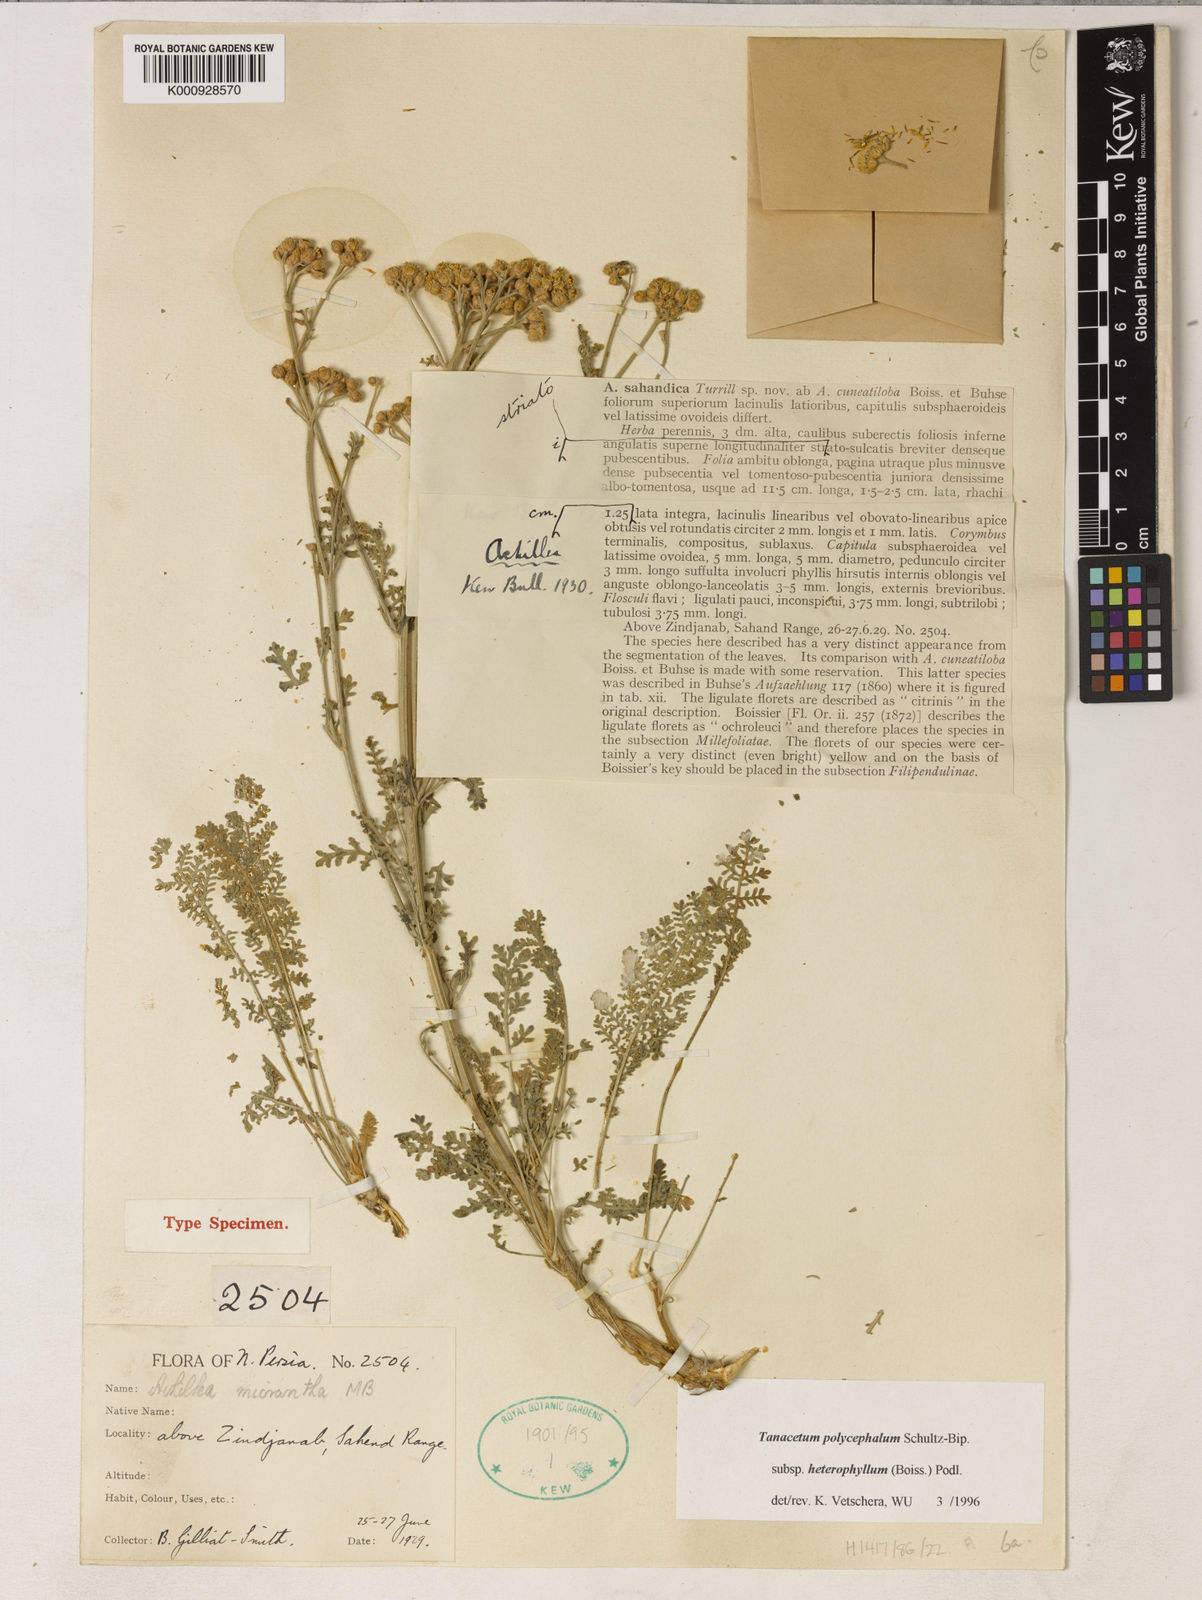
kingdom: Plantae
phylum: Tracheophyta
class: Magnoliopsida
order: Asterales
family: Asteraceae
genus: Tanacetum
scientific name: Tanacetum polycephalum
